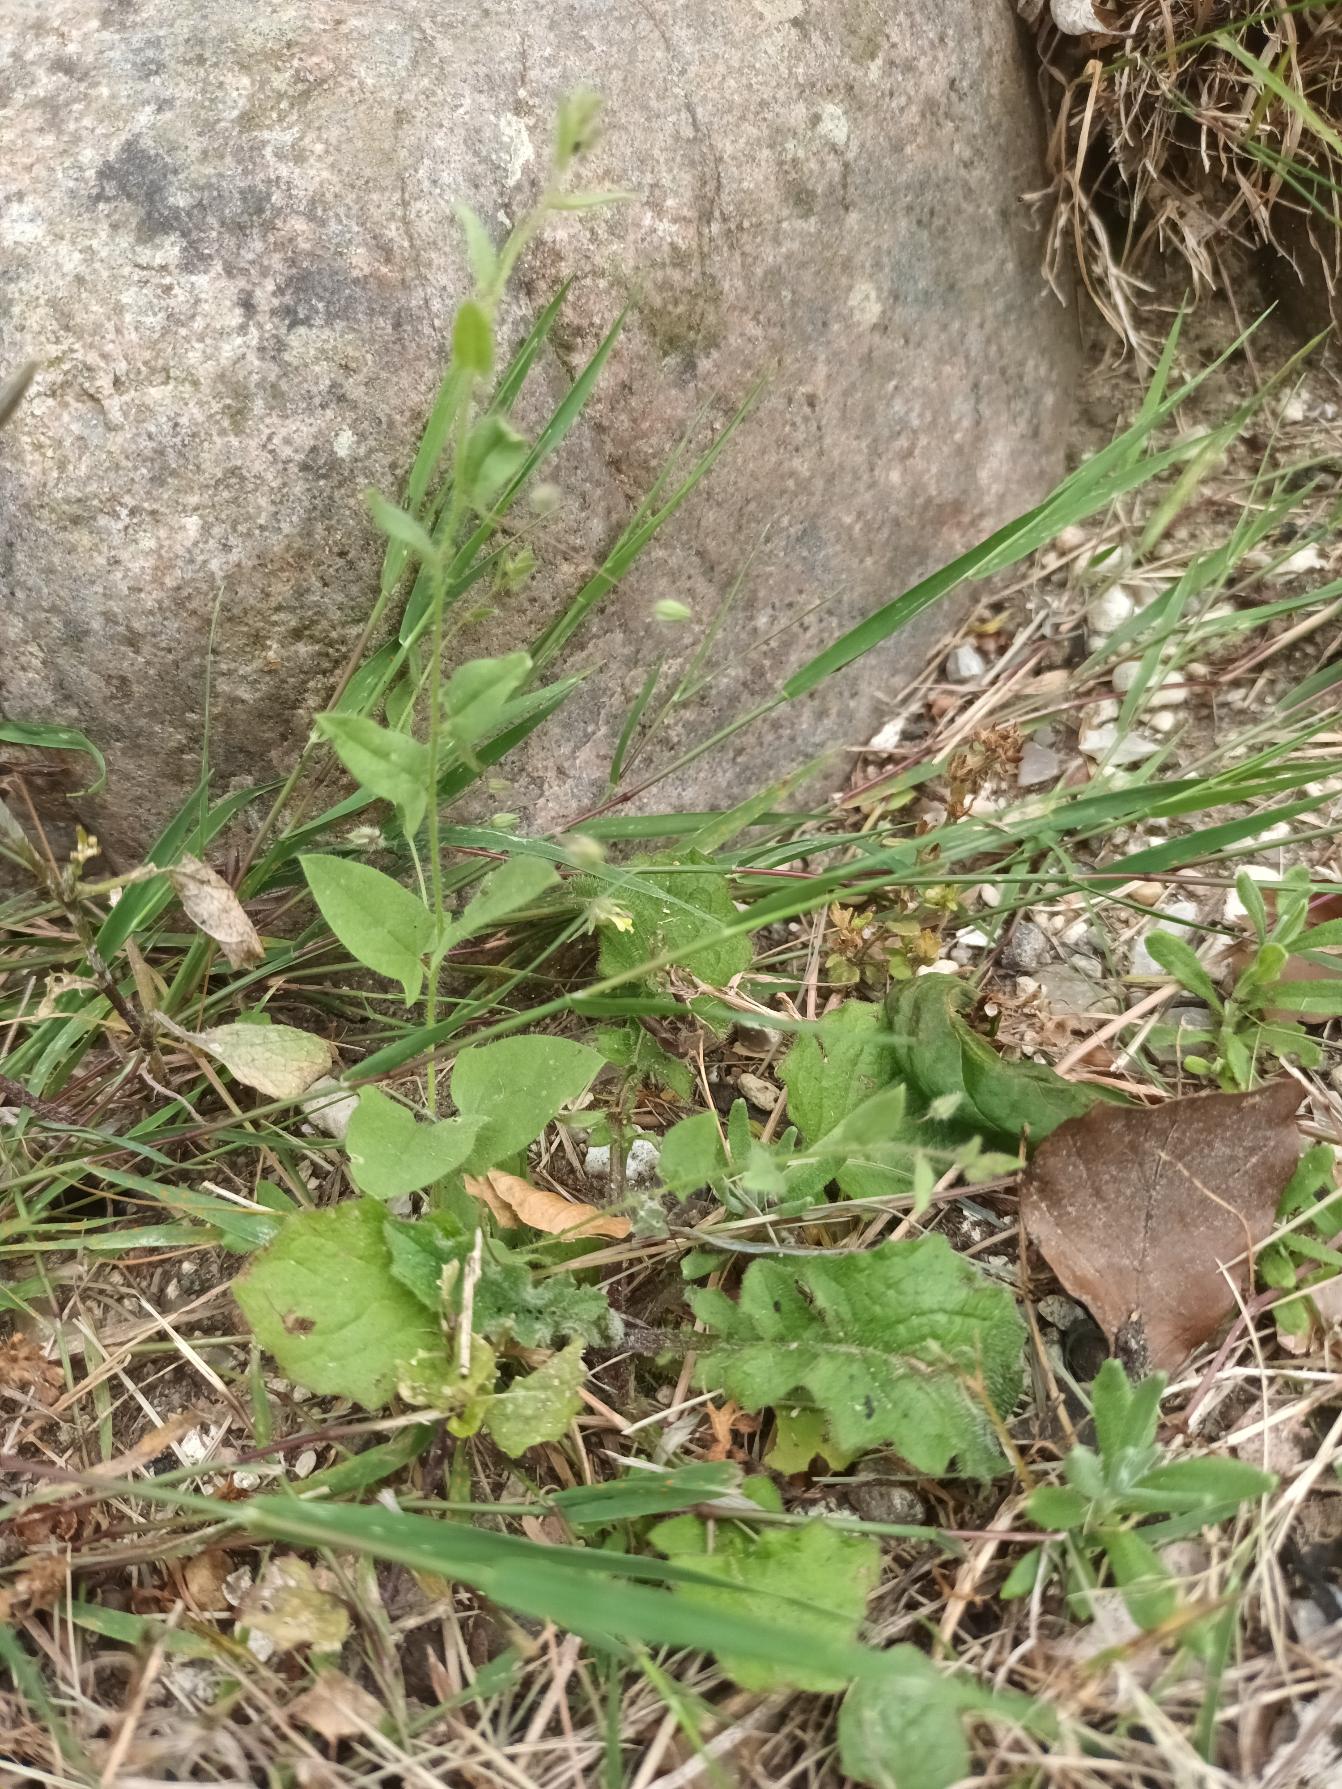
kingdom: Plantae
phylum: Tracheophyta
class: Magnoliopsida
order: Lamiales
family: Plantaginaceae
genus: Kickxia
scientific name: Kickxia elatine
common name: Spydbladet torskemund
